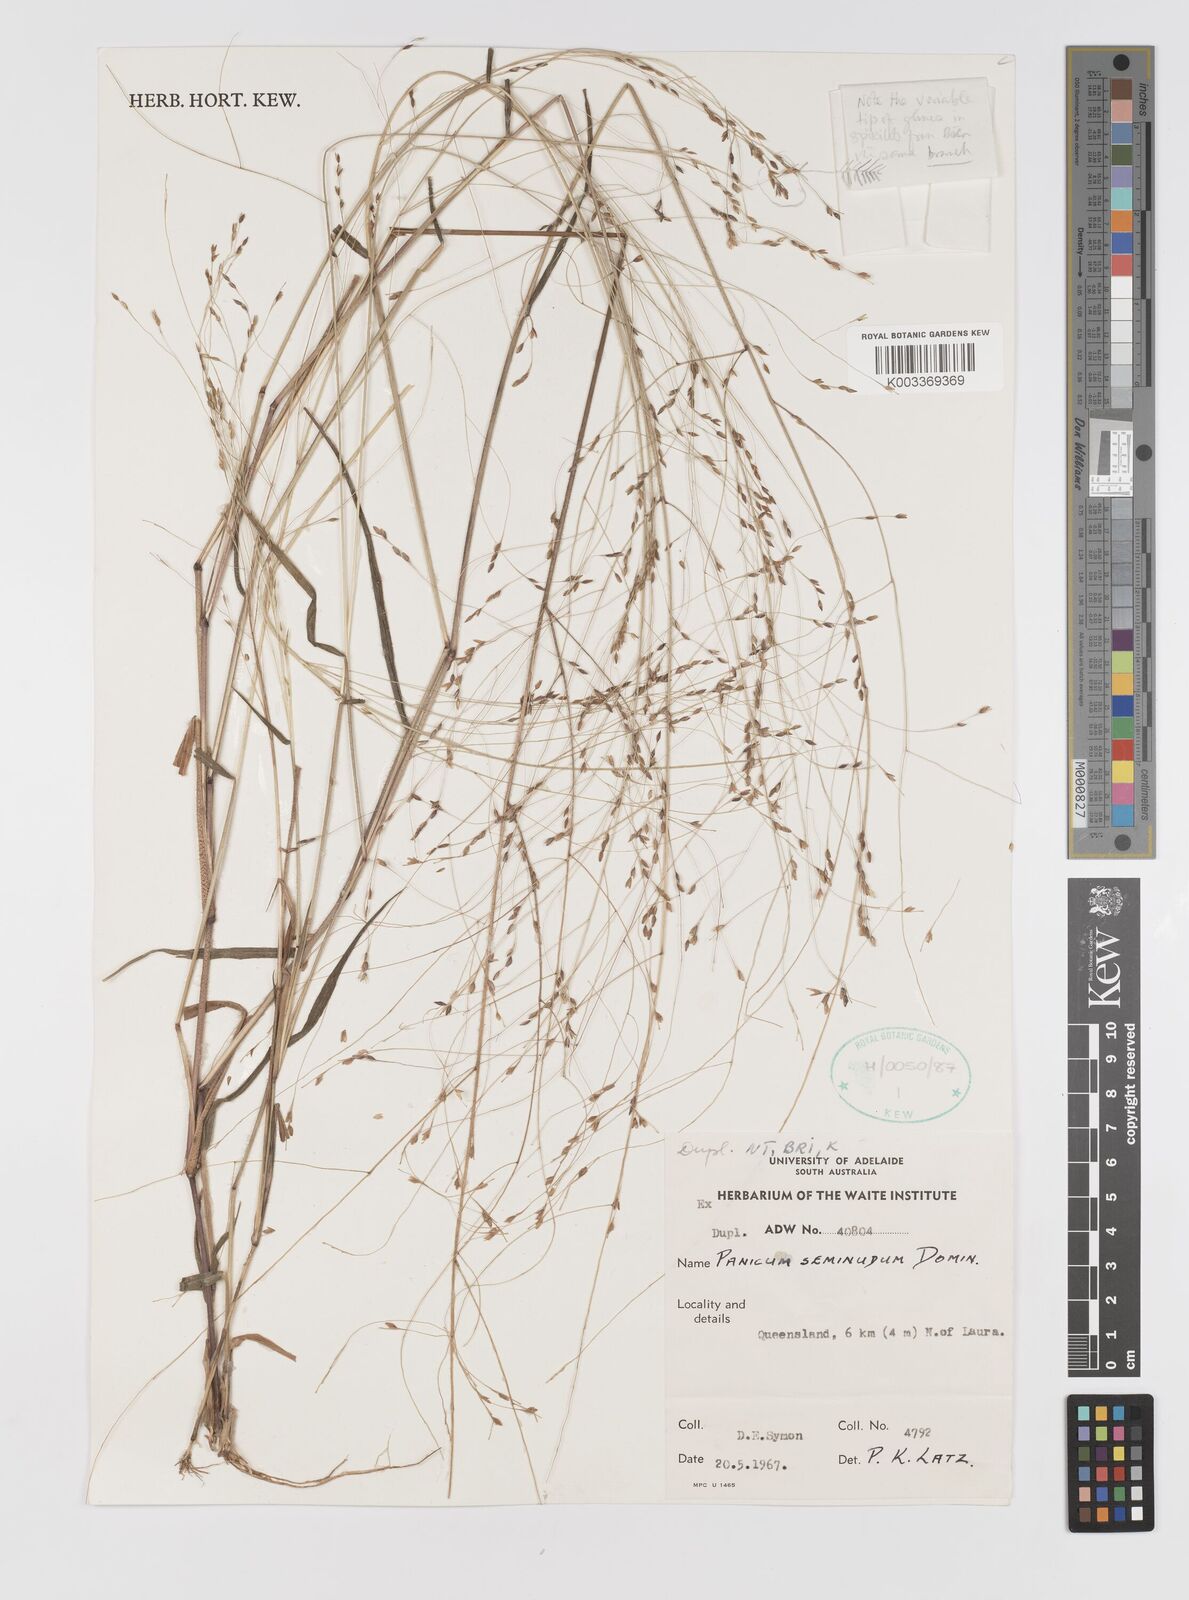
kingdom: Plantae
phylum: Tracheophyta
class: Liliopsida
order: Poales
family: Poaceae
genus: Panicum
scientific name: Panicum seminudum
